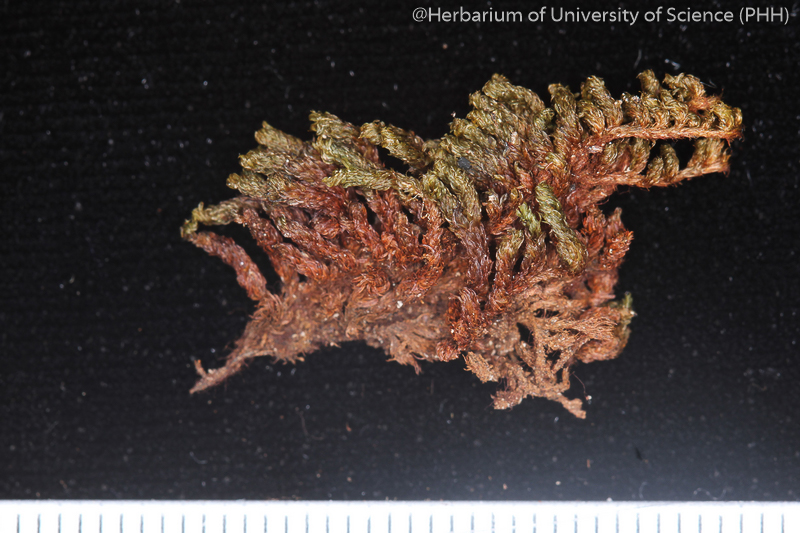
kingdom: Plantae
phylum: Bryophyta
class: Bryopsida
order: Orthotrichales
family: Orthotrichaceae
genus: Schlotheimia
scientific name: Schlotheimia tomentosa
